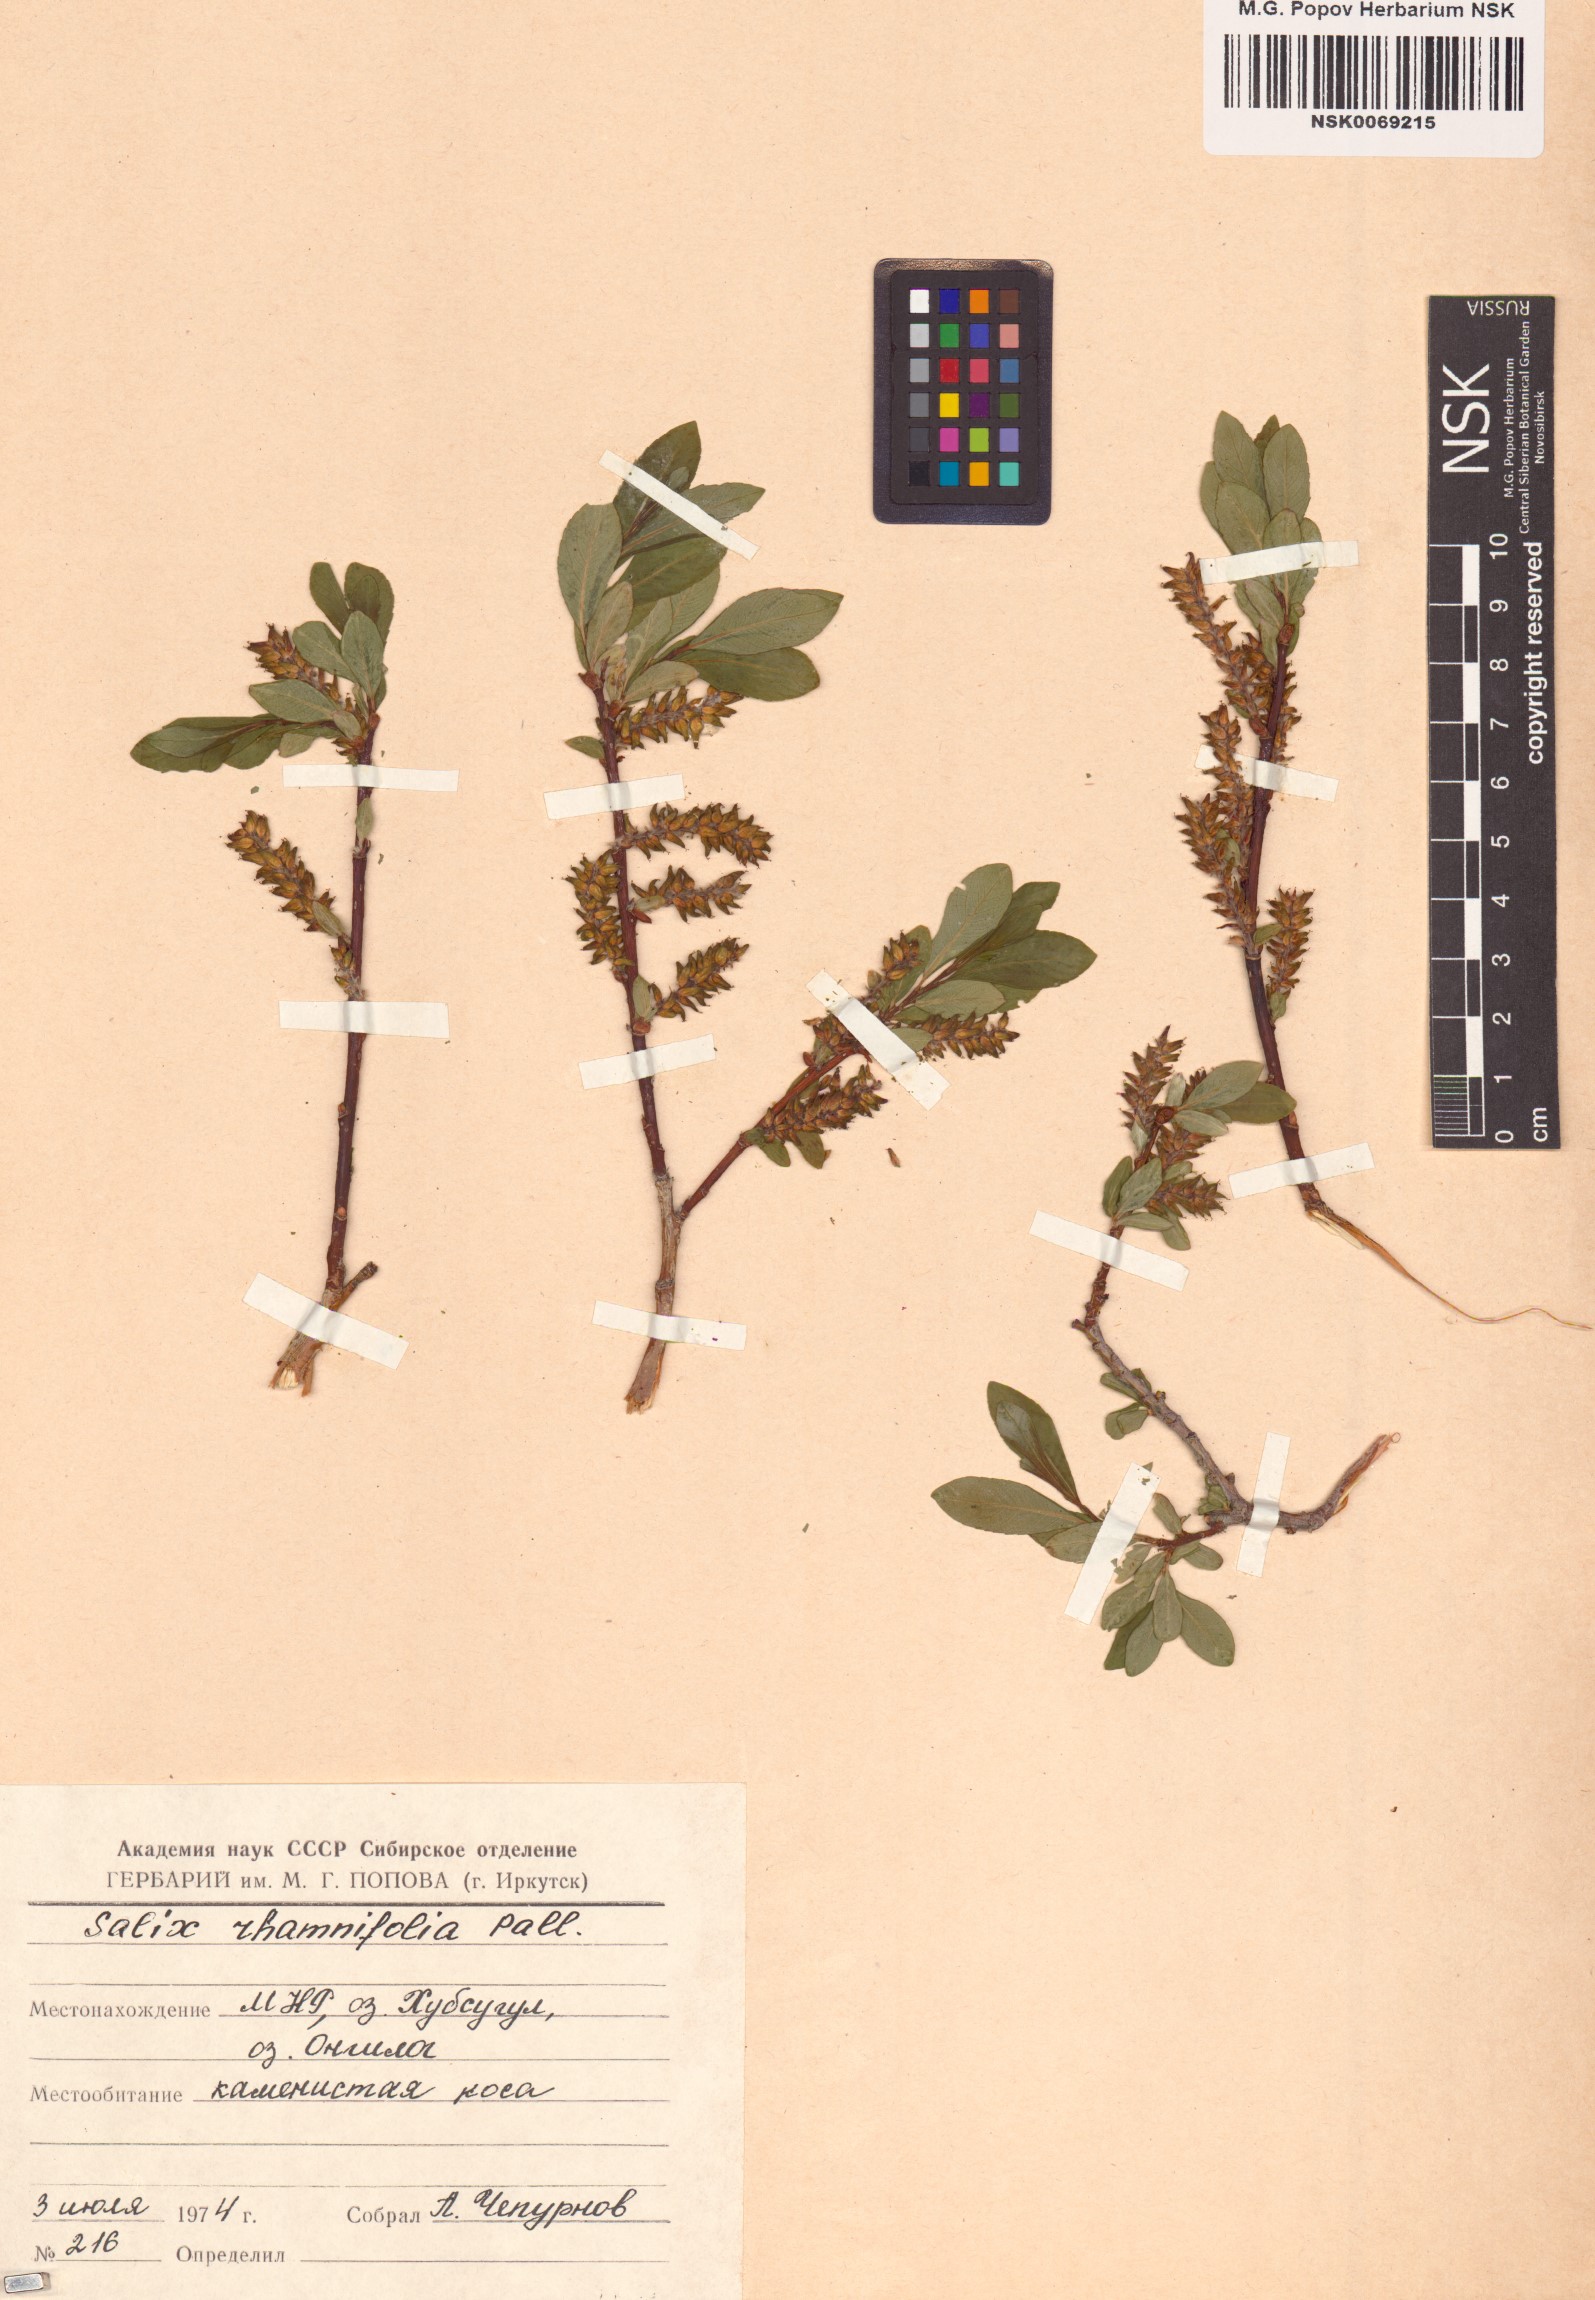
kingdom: Plantae
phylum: Tracheophyta
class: Magnoliopsida
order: Malpighiales
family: Salicaceae
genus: Salix
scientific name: Salix rhamnifolia
